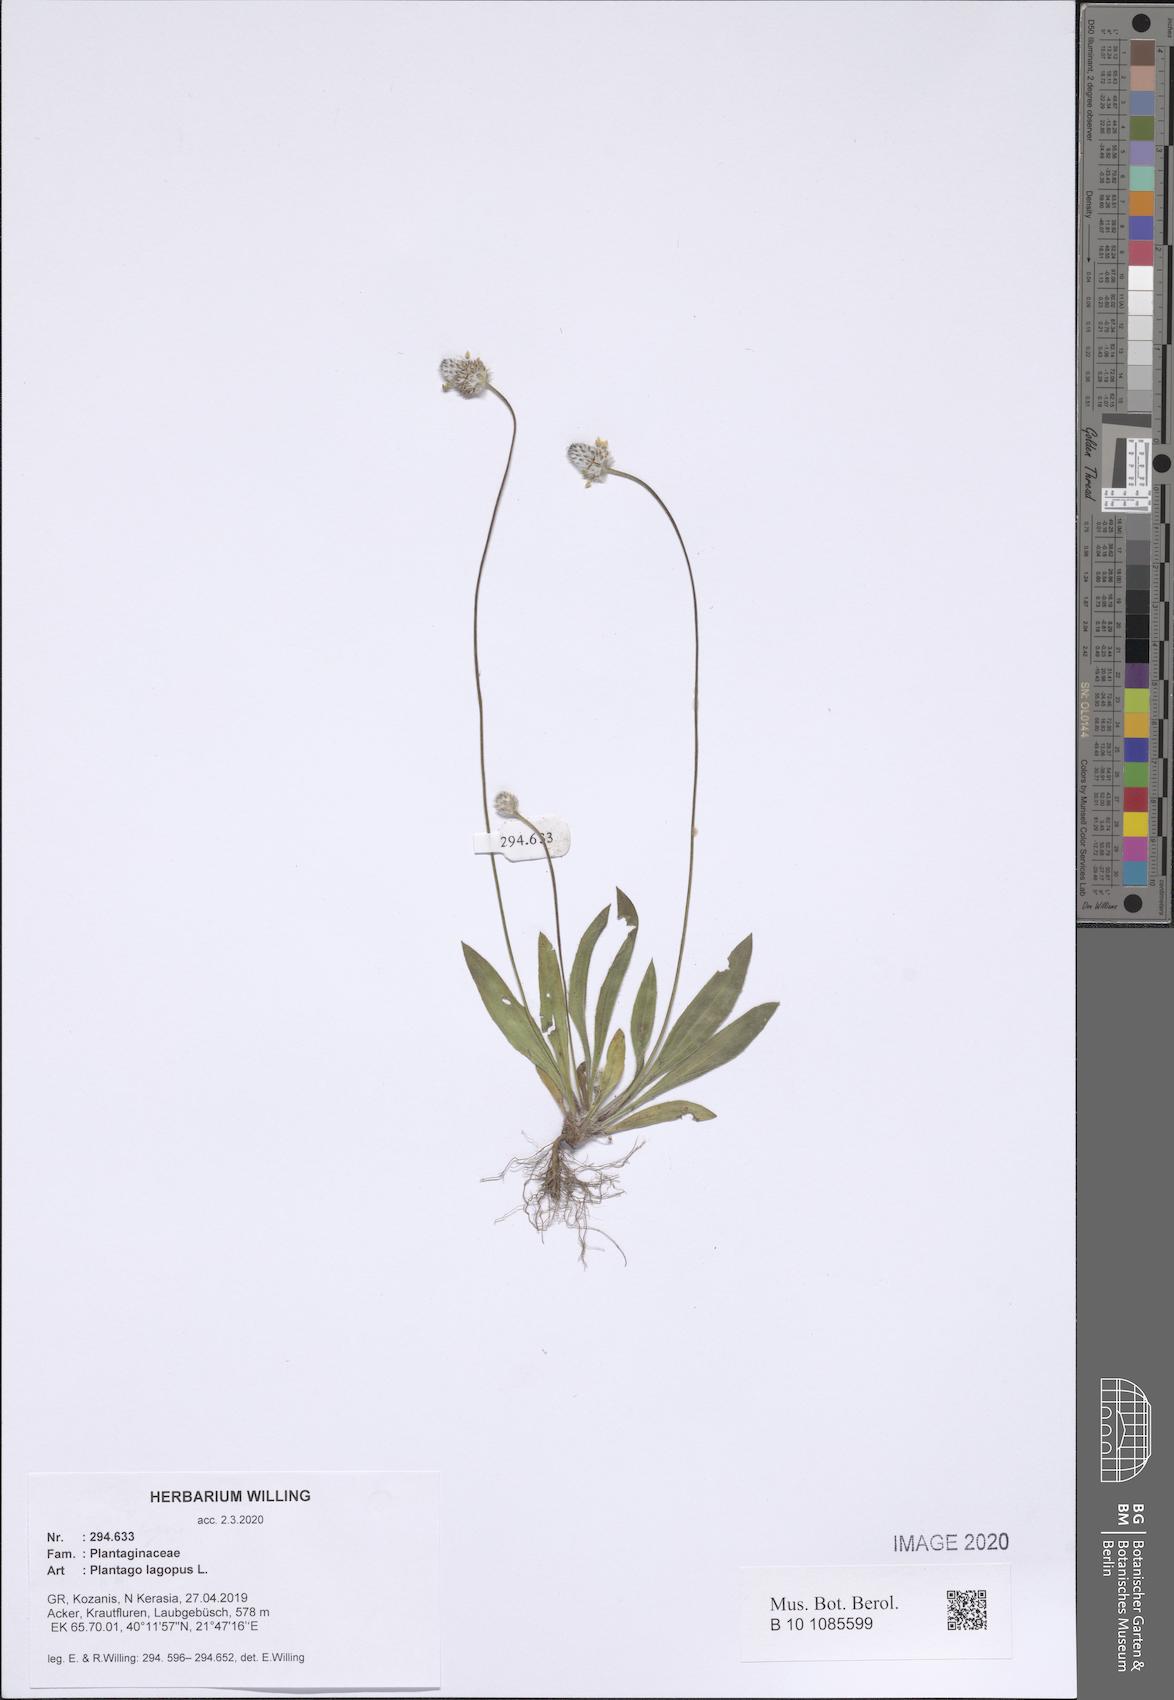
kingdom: Plantae
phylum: Tracheophyta
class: Magnoliopsida
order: Lamiales
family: Plantaginaceae
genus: Plantago
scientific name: Plantago lagopus
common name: Hare-foot plantain
